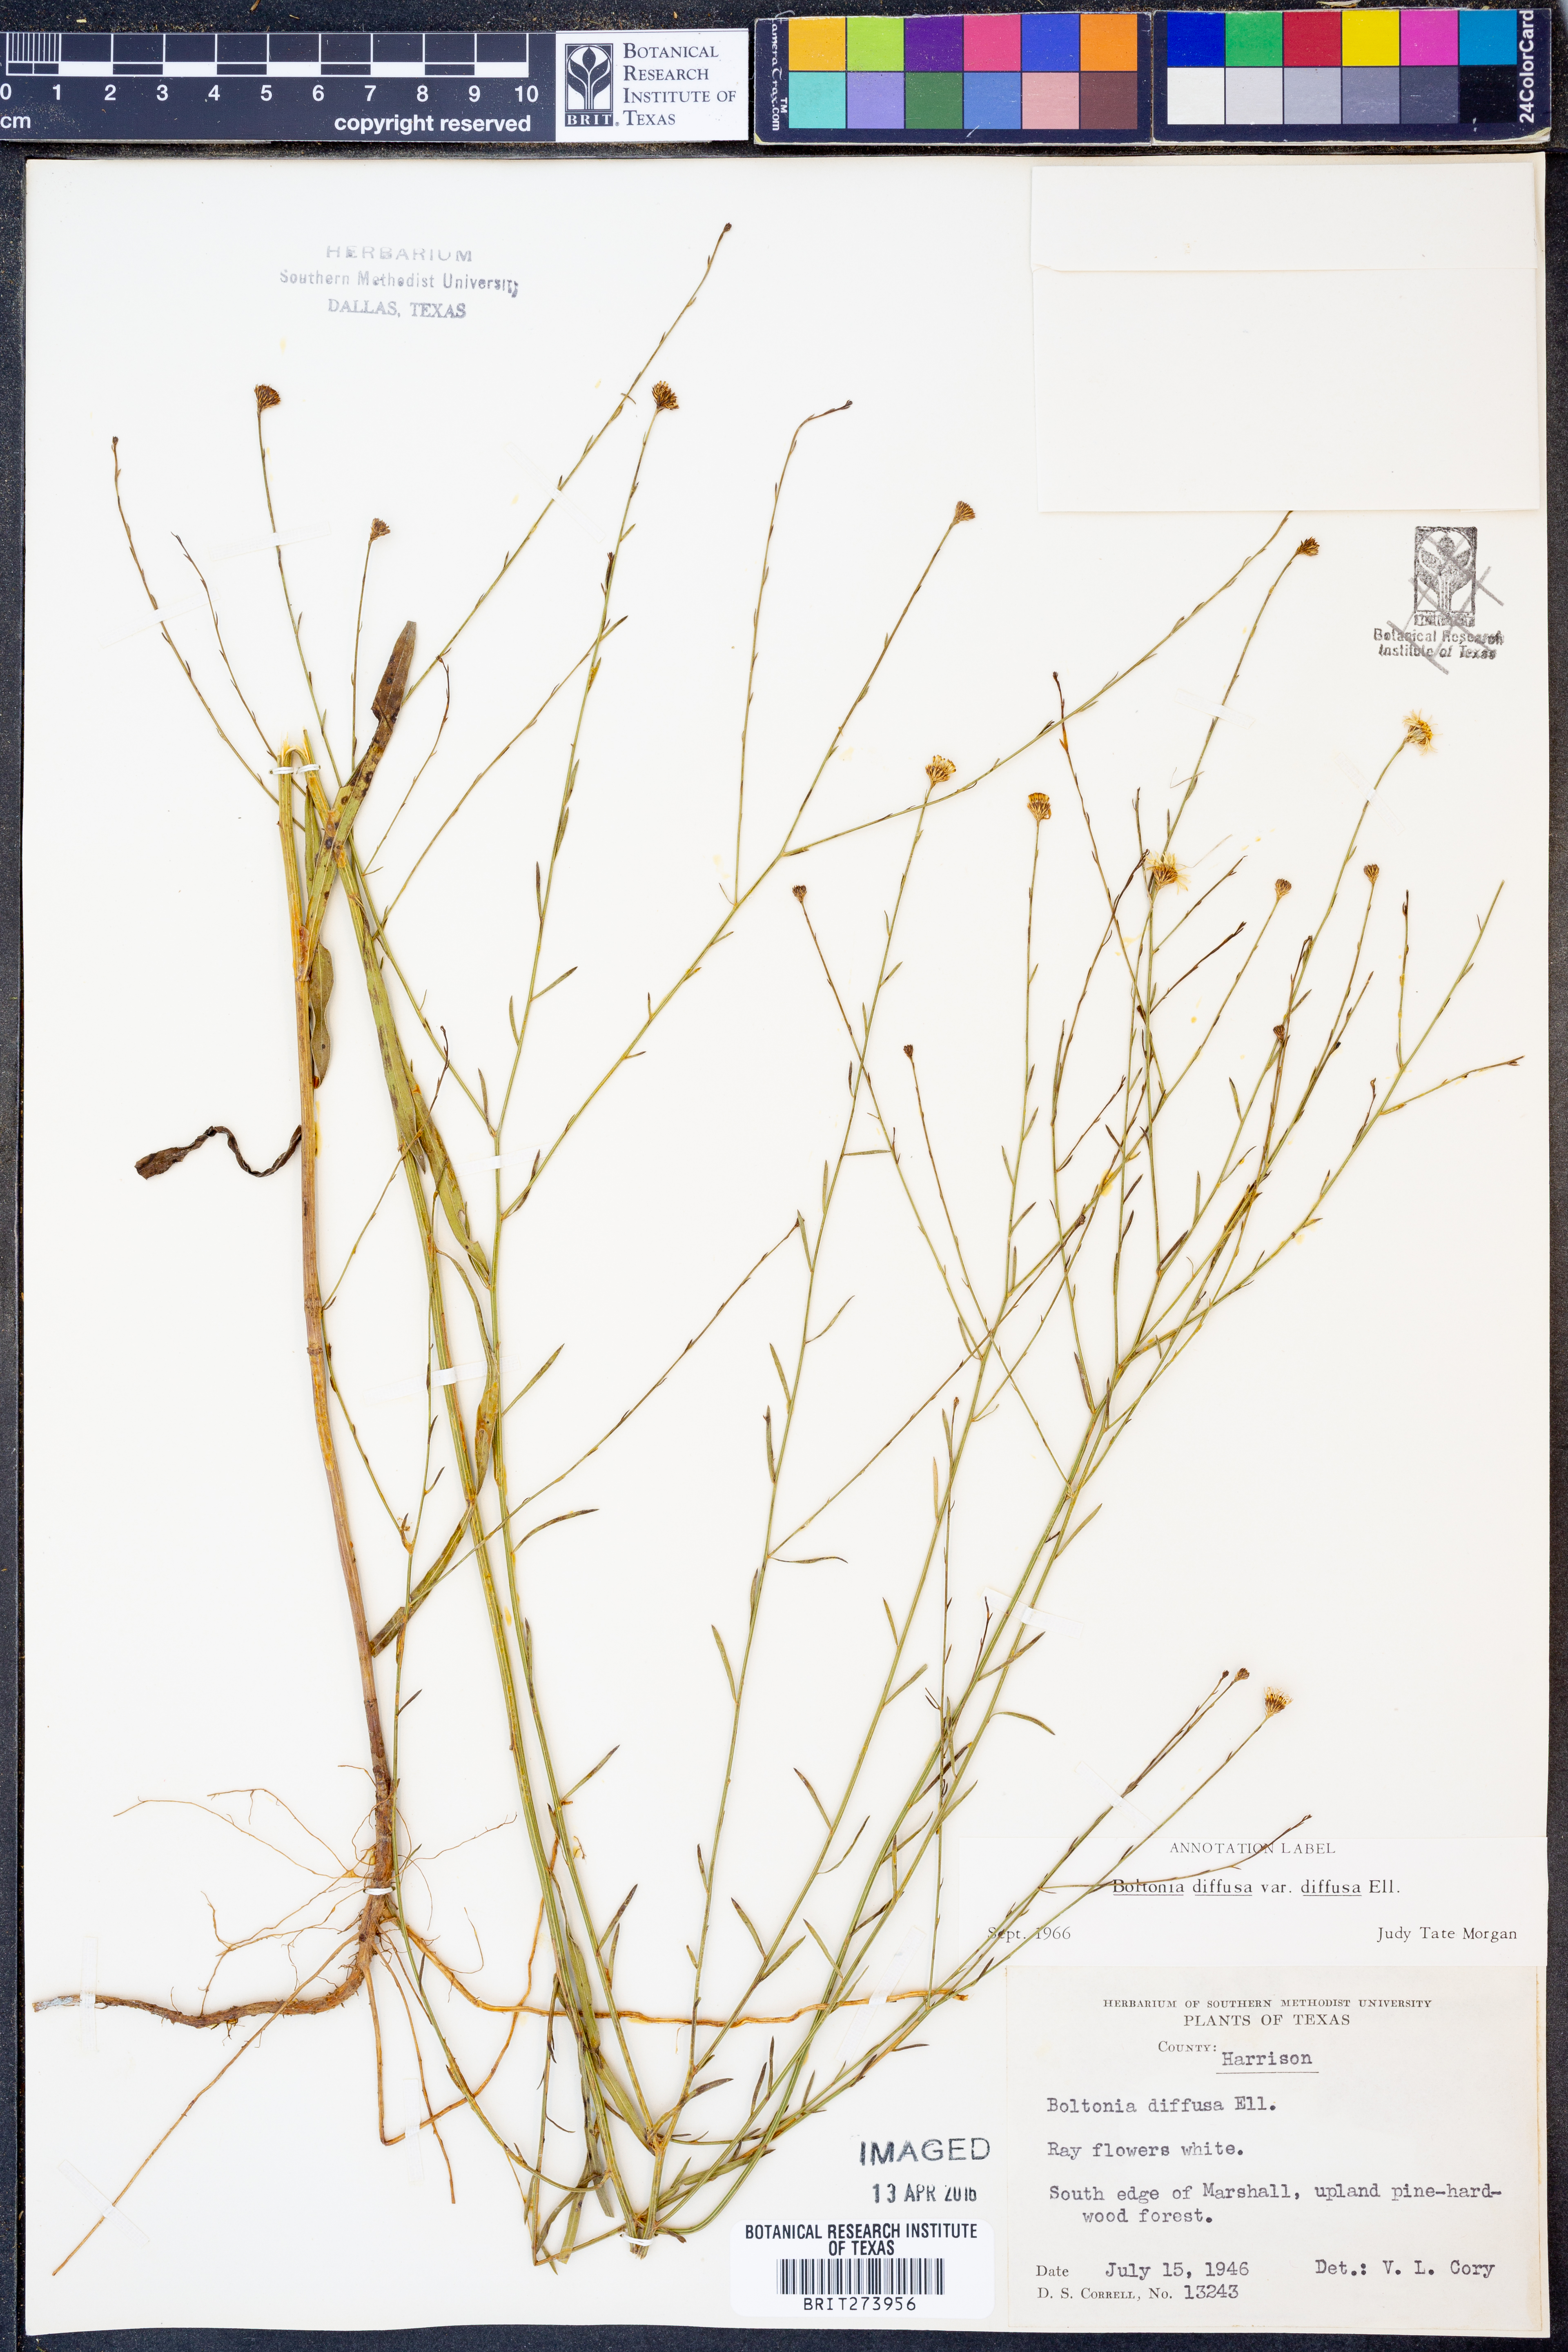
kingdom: Plantae
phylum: Tracheophyta
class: Magnoliopsida
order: Asterales
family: Asteraceae
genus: Boltonia
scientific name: Boltonia diffusa
